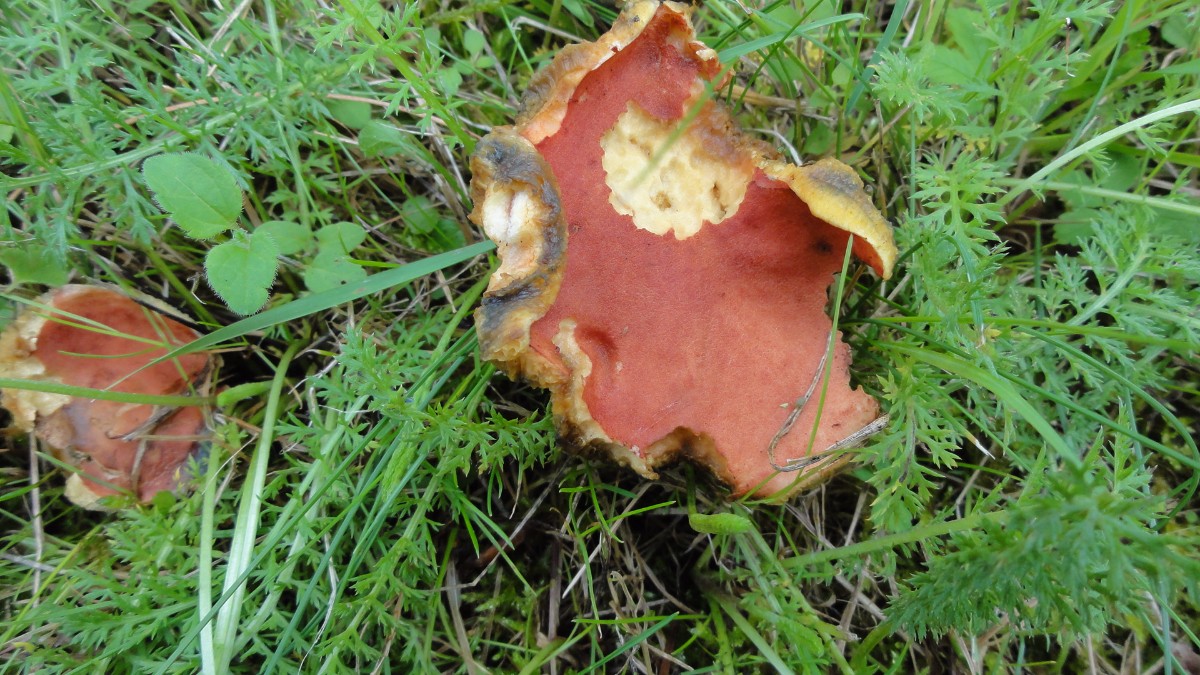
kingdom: Fungi
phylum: Basidiomycota
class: Agaricomycetes
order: Boletales
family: Boletaceae
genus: Hortiboletus
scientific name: Hortiboletus rubellus
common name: blodrød rørhat
